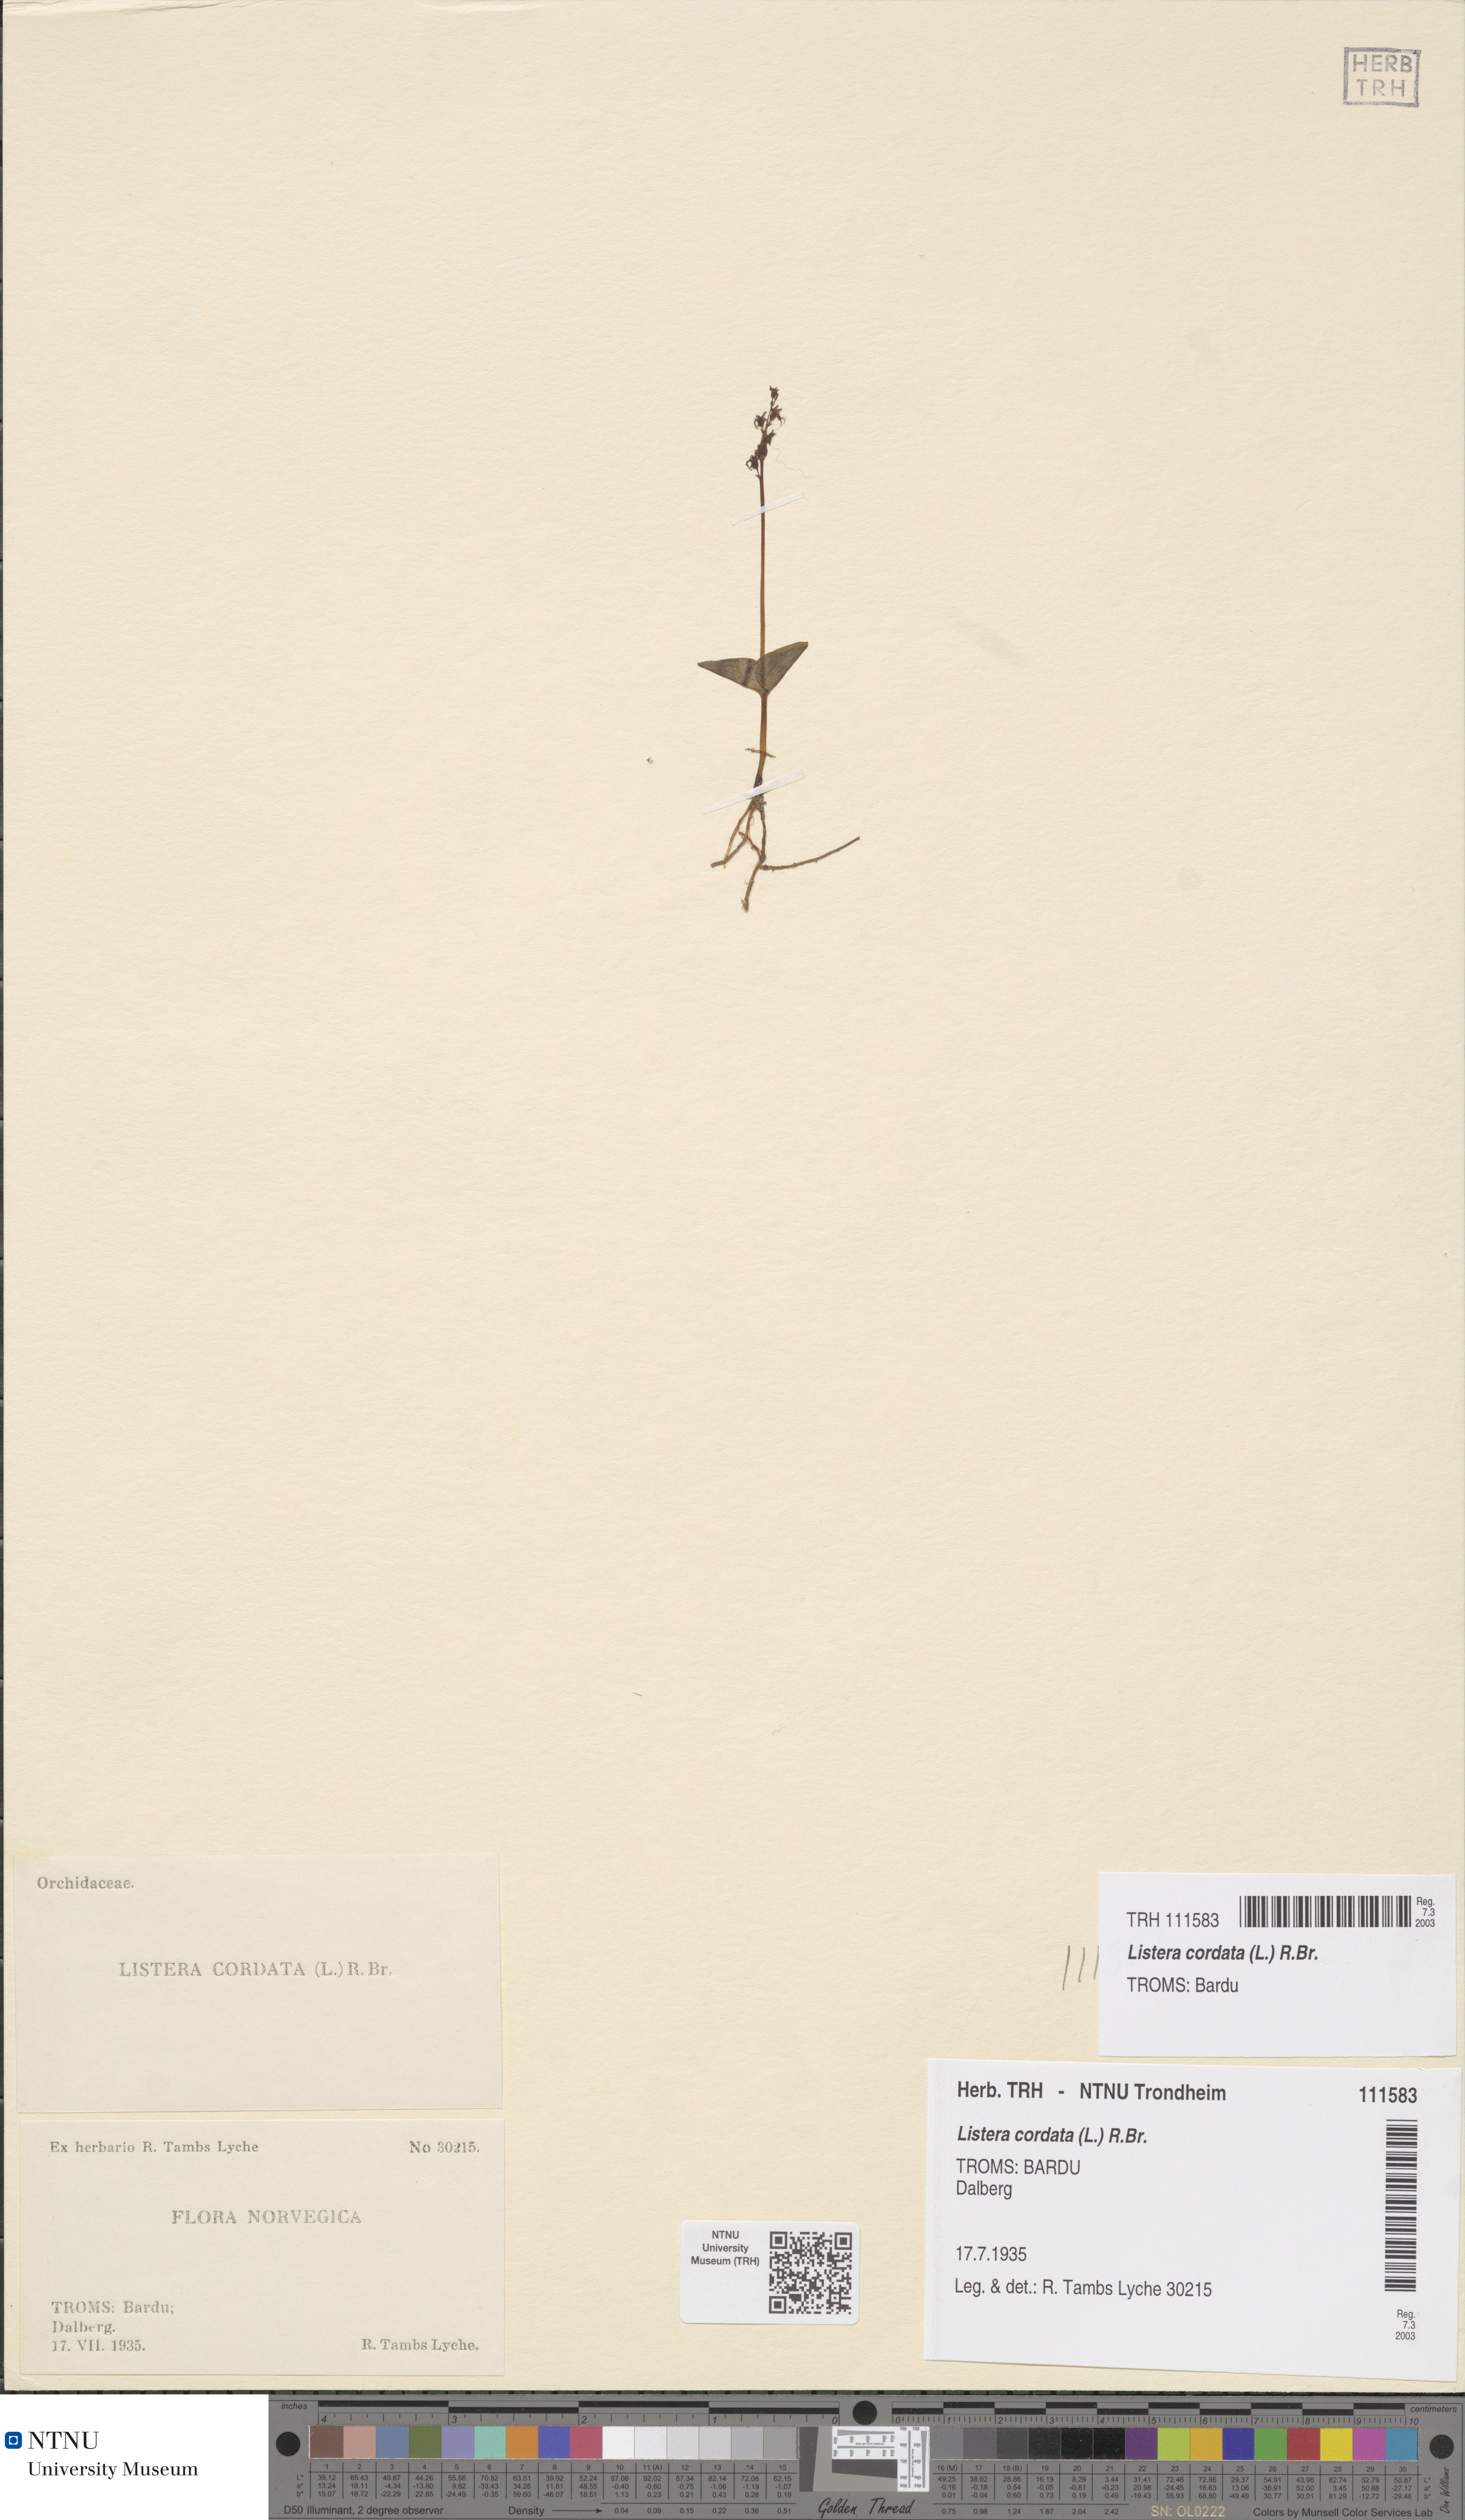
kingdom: Plantae
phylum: Tracheophyta
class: Liliopsida
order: Asparagales
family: Orchidaceae
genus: Neottia
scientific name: Neottia cordata
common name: Lesser twayblade
